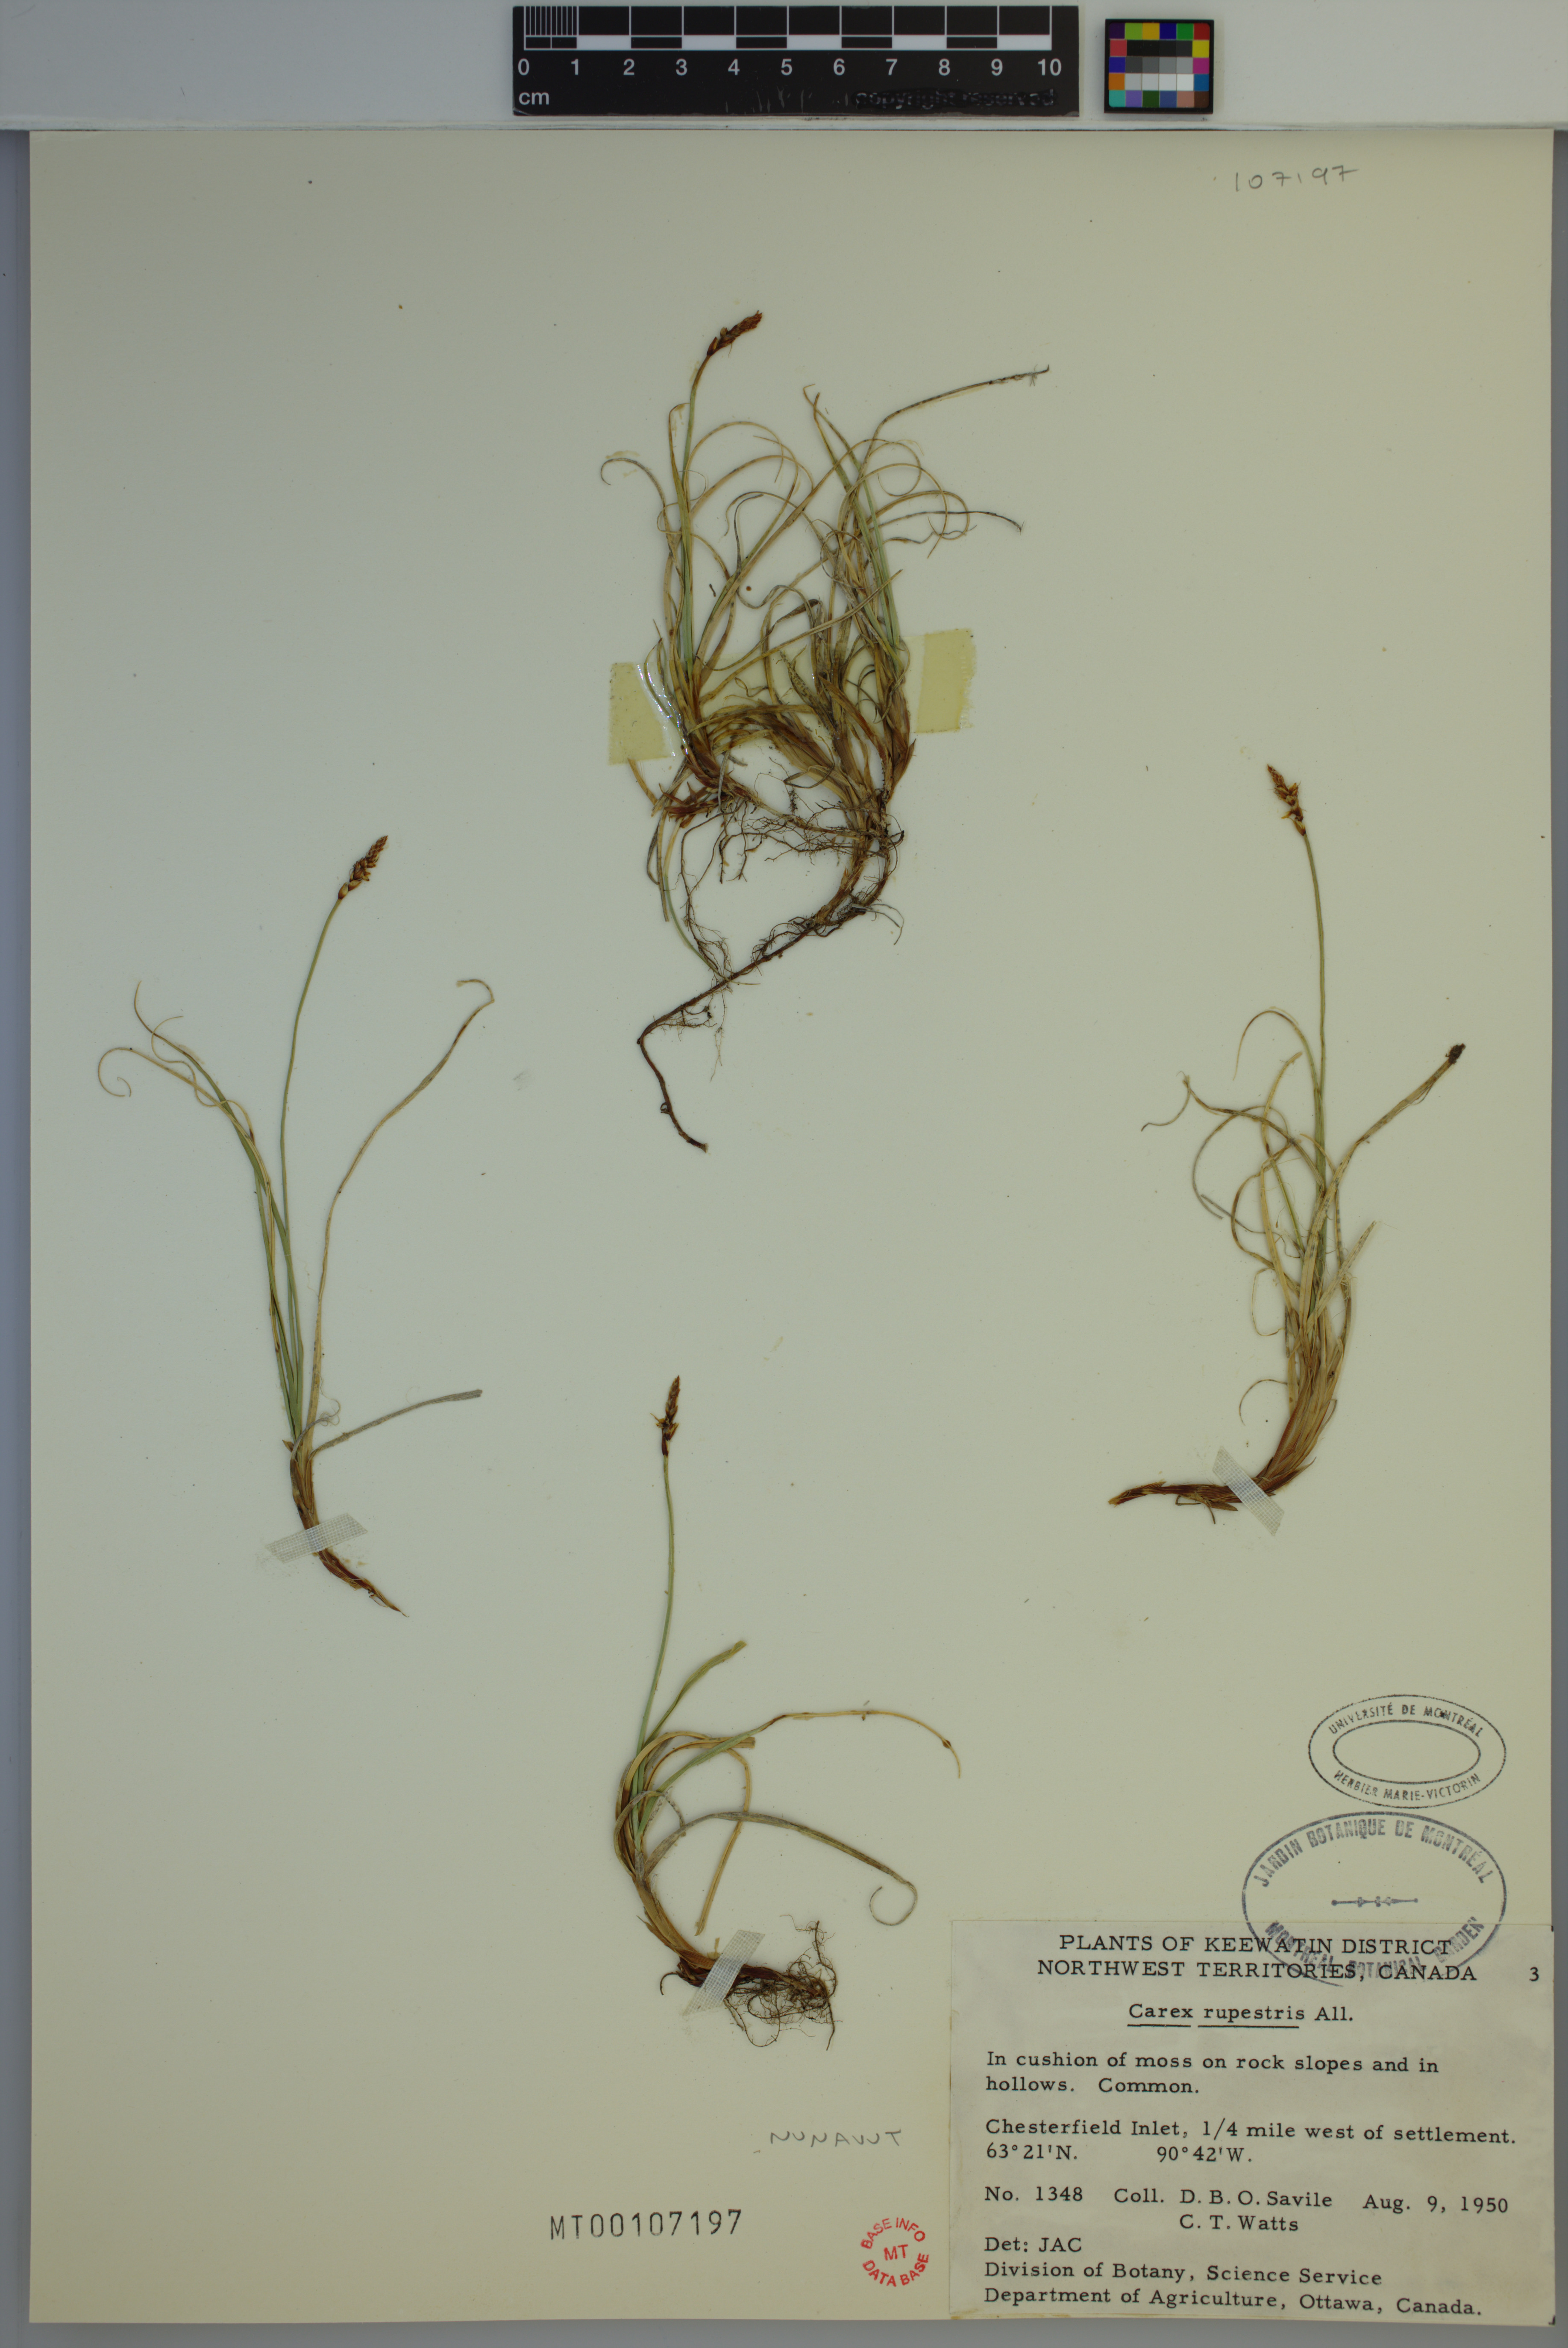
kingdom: Plantae
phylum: Tracheophyta
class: Liliopsida
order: Poales
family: Cyperaceae
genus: Carex
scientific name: Carex rupestris
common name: Rock sedge
